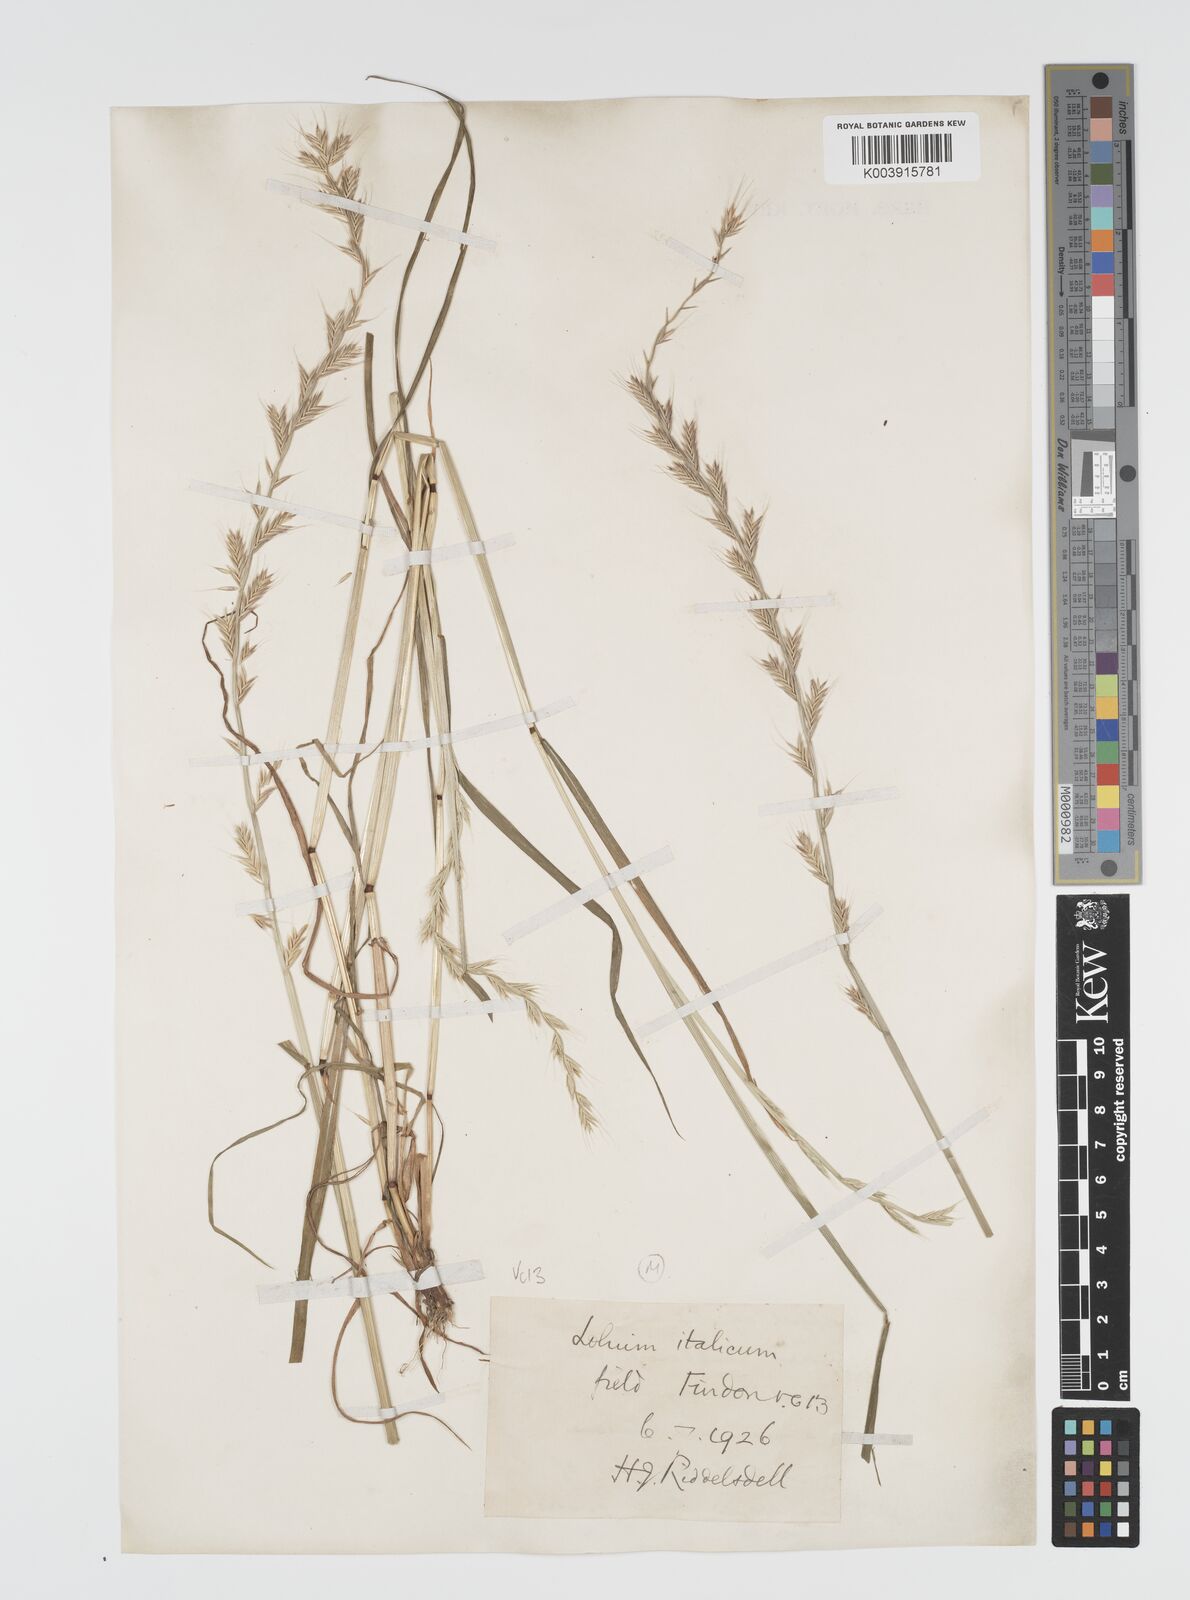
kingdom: Plantae
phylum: Tracheophyta
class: Liliopsida
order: Poales
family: Poaceae
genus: Lolium
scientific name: Lolium multiflorum
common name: Annual ryegrass
